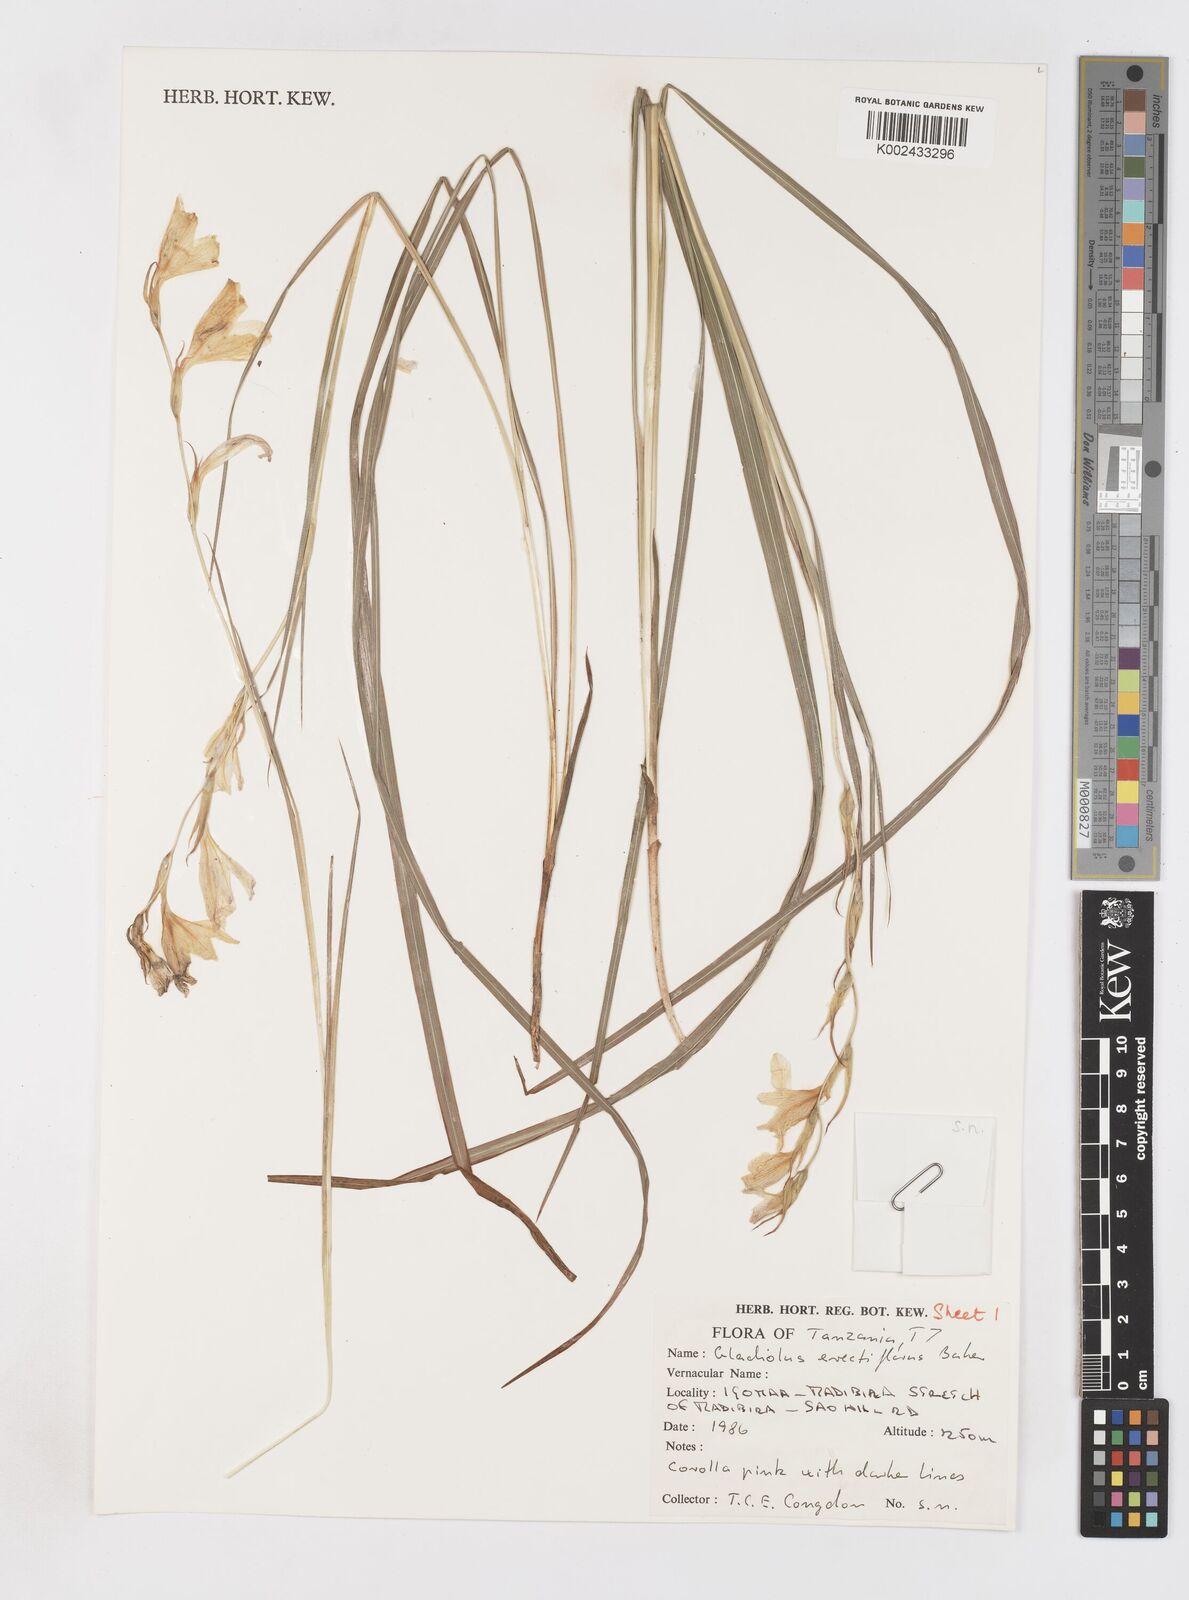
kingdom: Plantae
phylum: Tracheophyta
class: Liliopsida
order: Asparagales
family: Iridaceae
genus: Gladiolus
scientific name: Gladiolus erectiflorus
